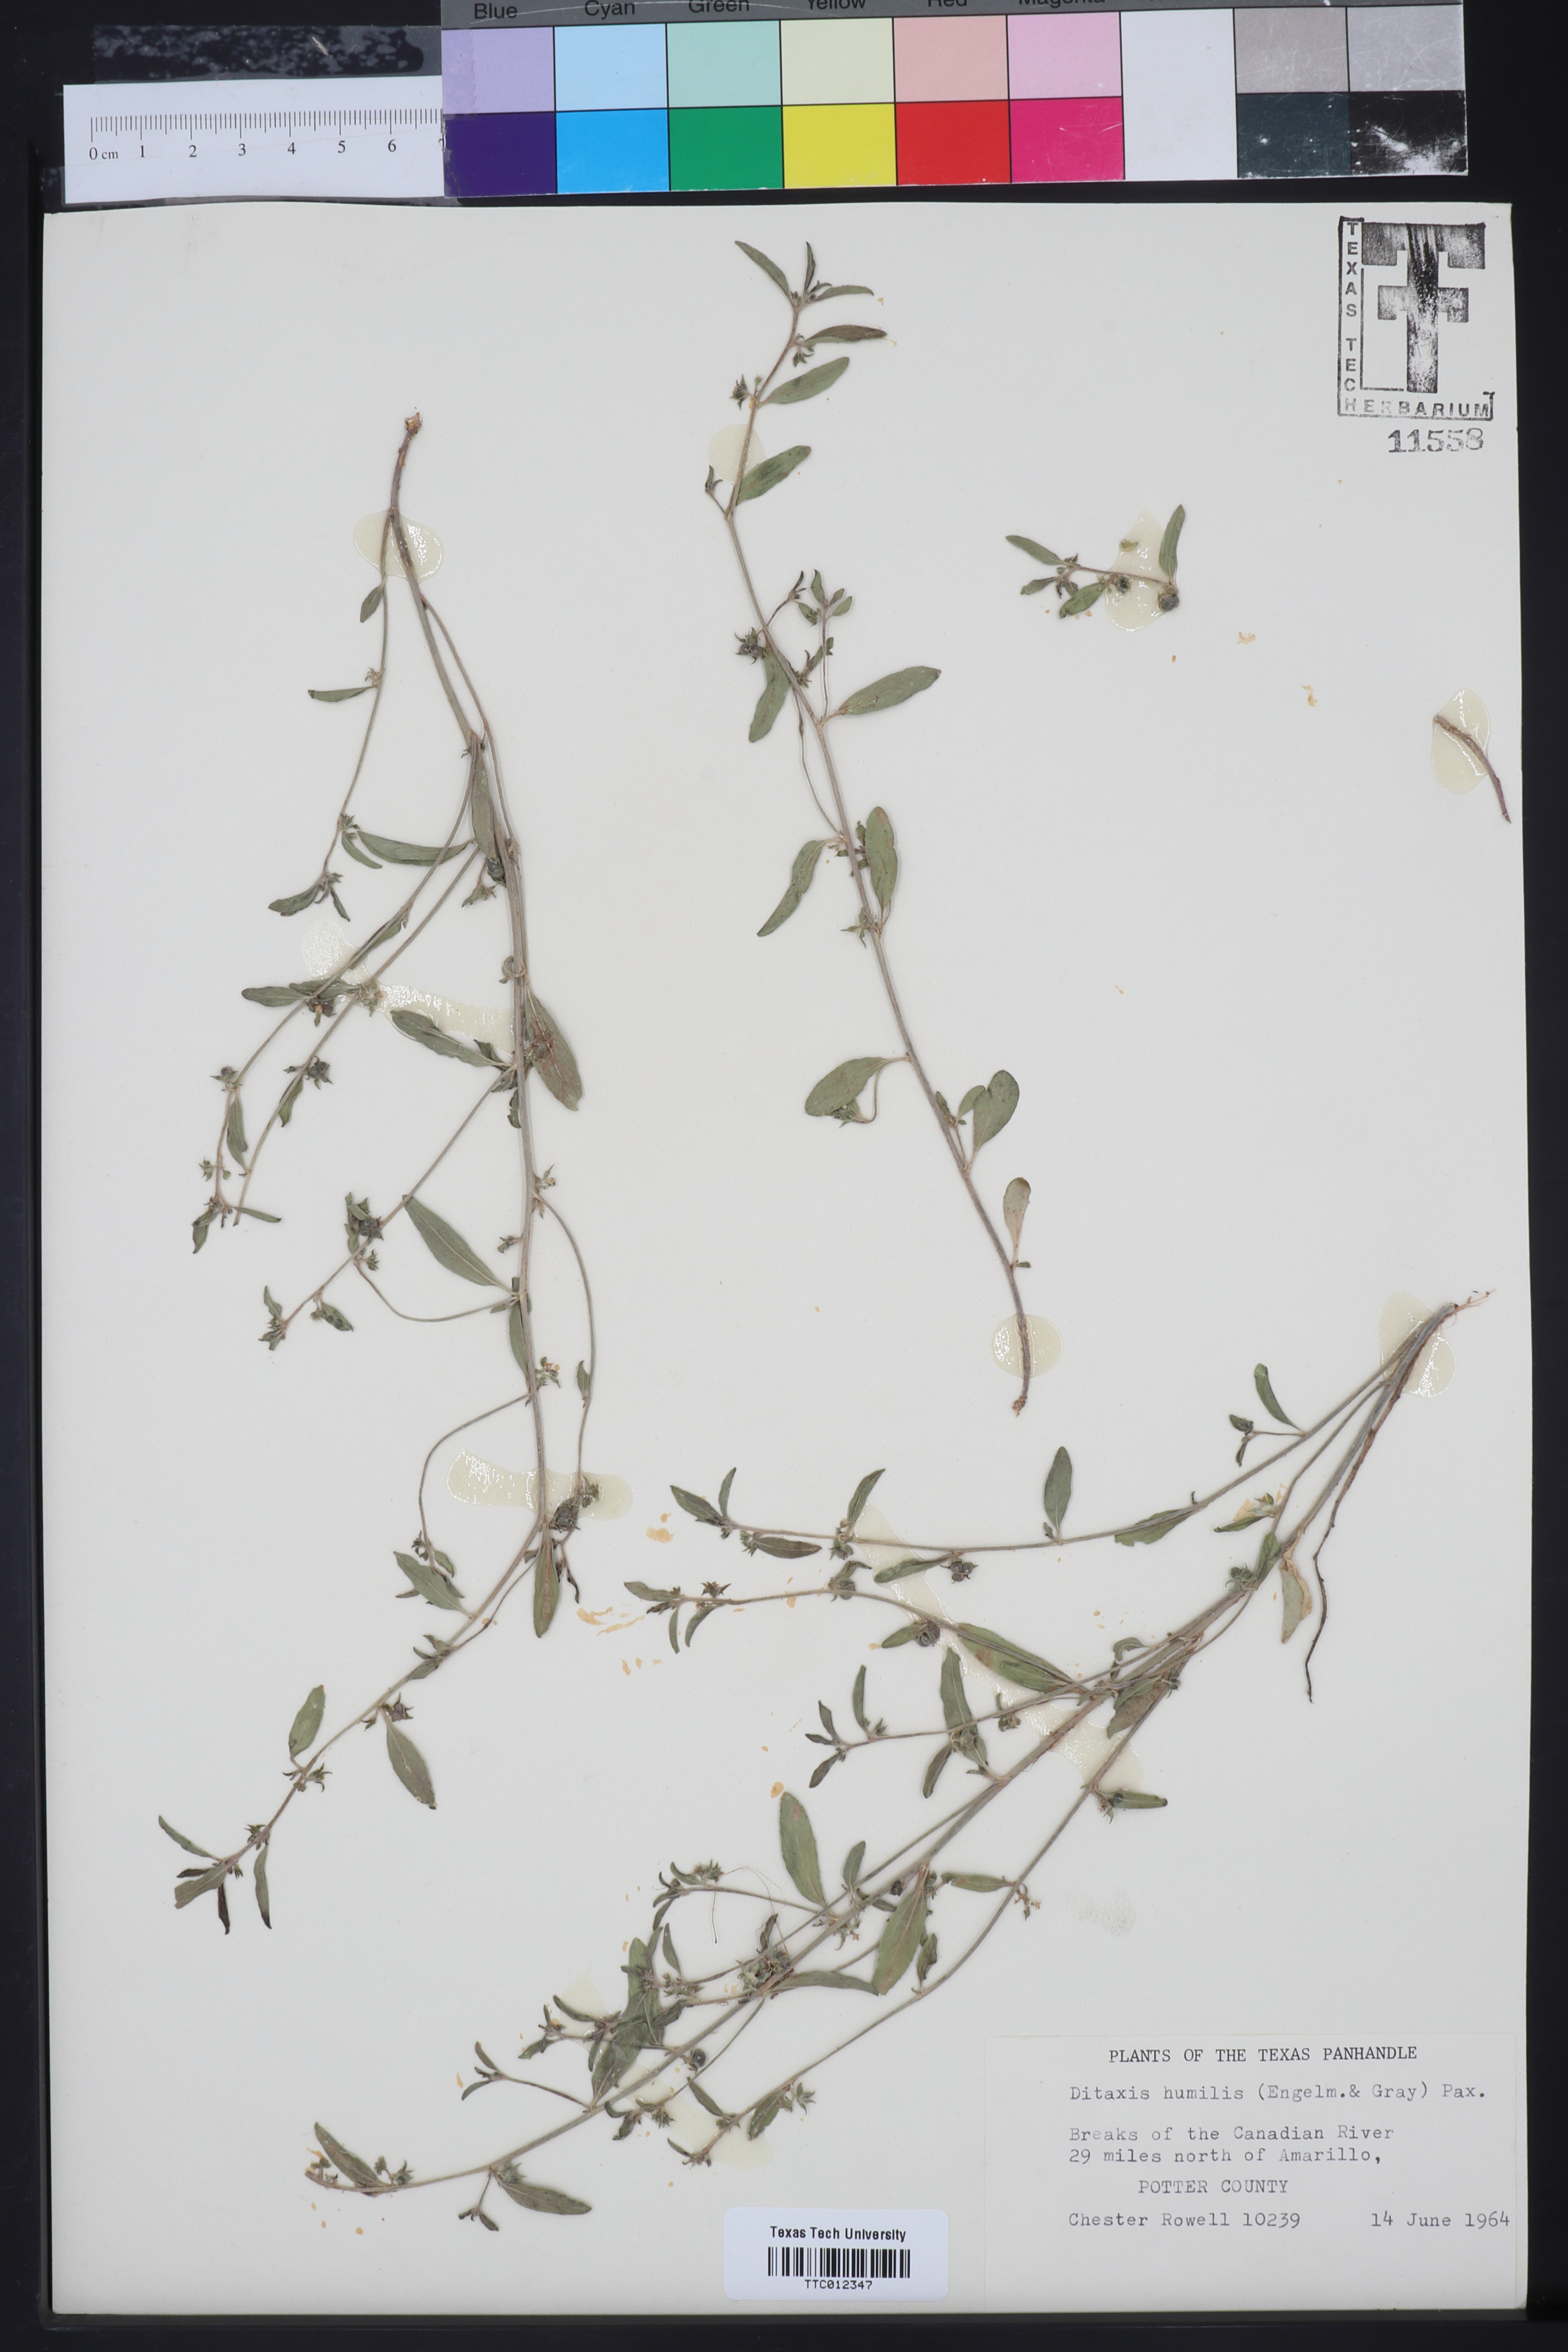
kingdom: Plantae
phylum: Tracheophyta
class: Magnoliopsida
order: Malpighiales
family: Euphorbiaceae
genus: Ditaxis
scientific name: Ditaxis humilis
